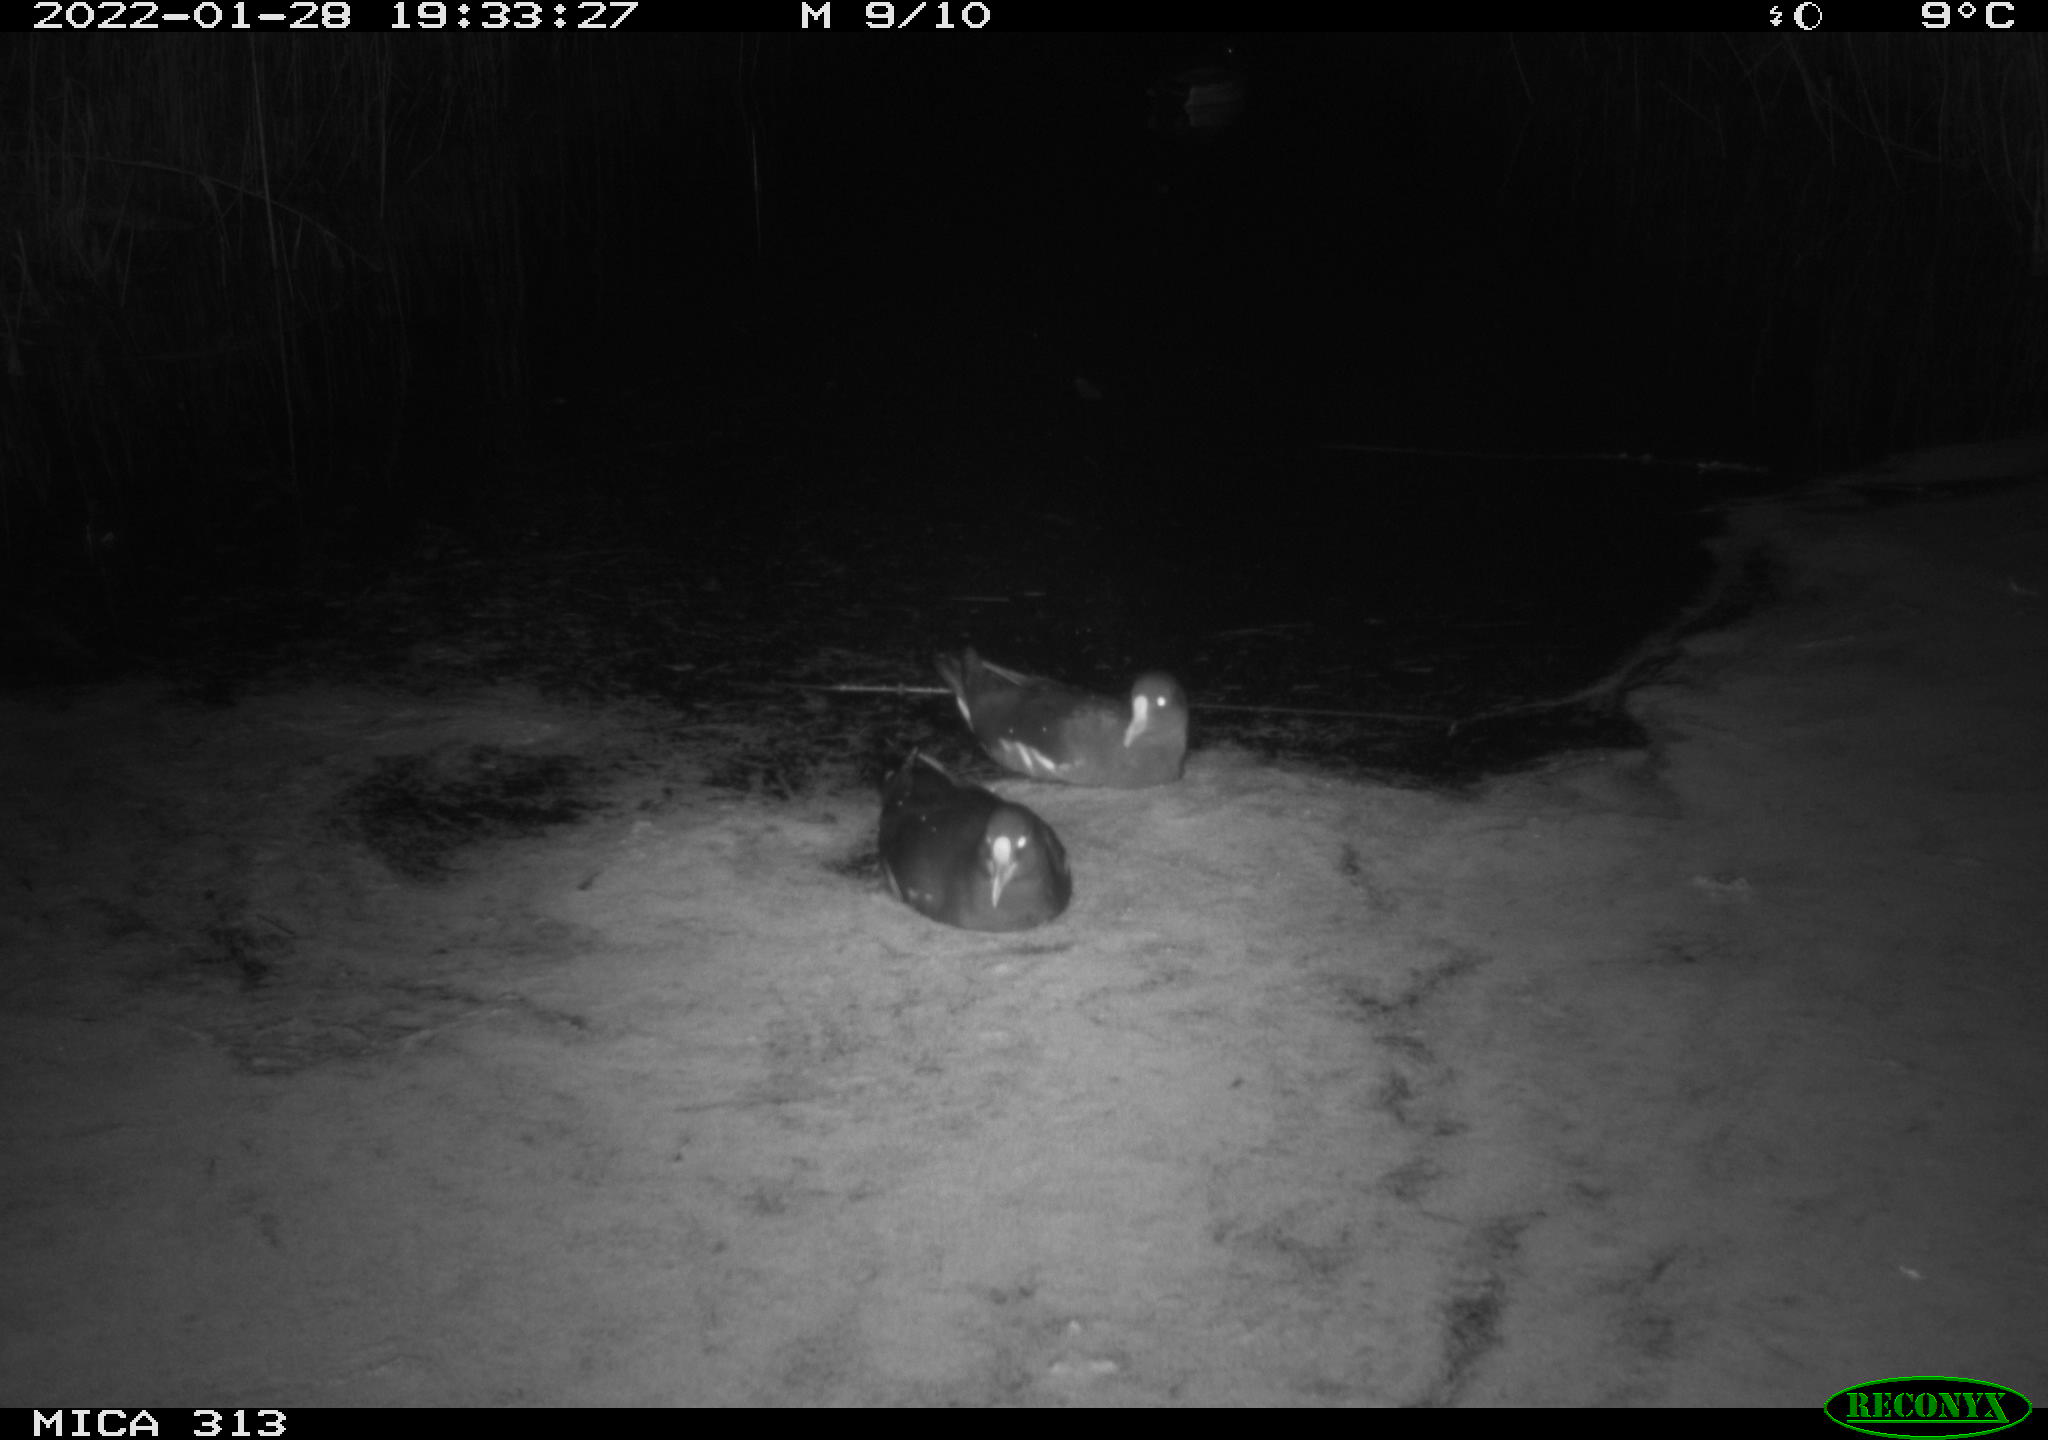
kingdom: Animalia
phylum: Chordata
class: Aves
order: Anseriformes
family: Anatidae
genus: Anas
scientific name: Anas
